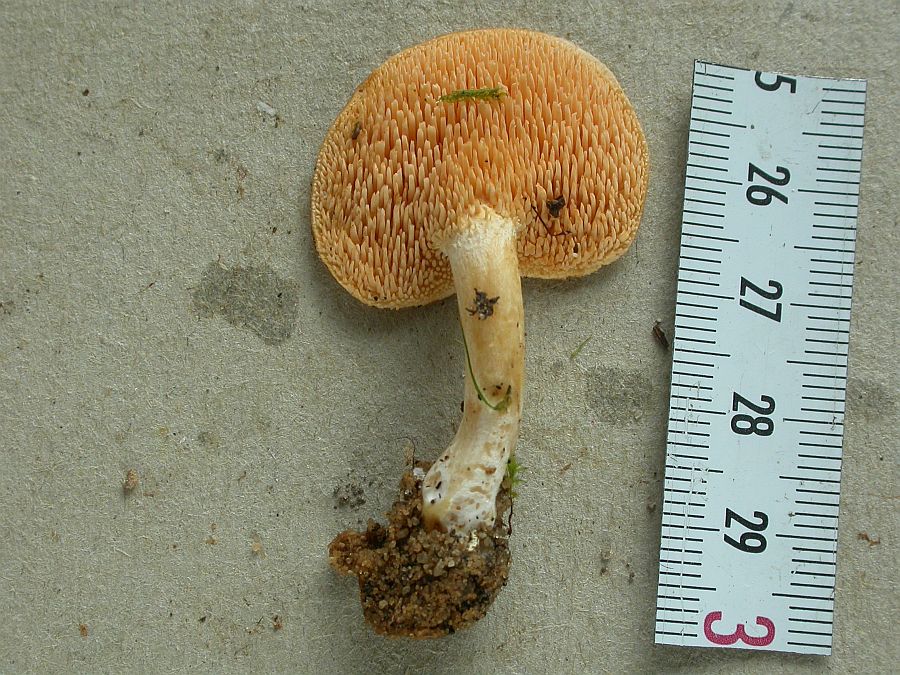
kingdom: Fungi
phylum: Basidiomycota
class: Agaricomycetes
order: Cantharellales
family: Hydnaceae
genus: Hydnum
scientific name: Hydnum ellipsosporum
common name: tandet pigsvamp
